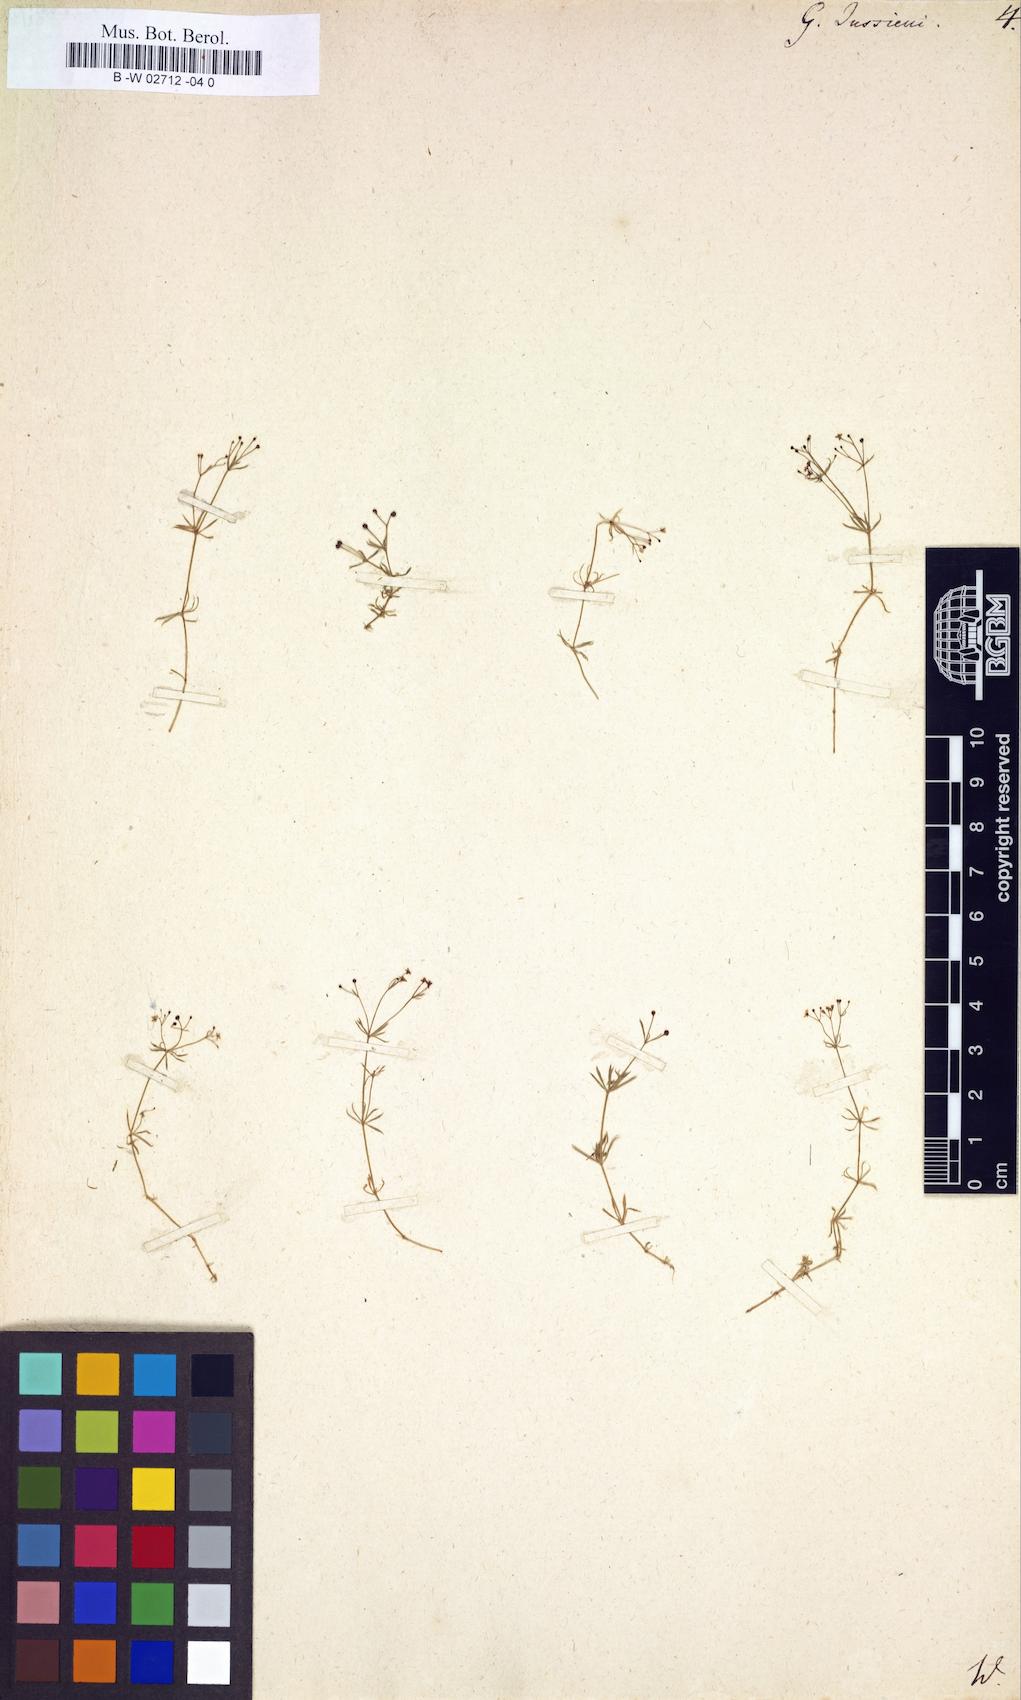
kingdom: Plantae
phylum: Tracheophyta
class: Magnoliopsida
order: Gentianales
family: Rubiaceae
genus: Galium
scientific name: Galium
